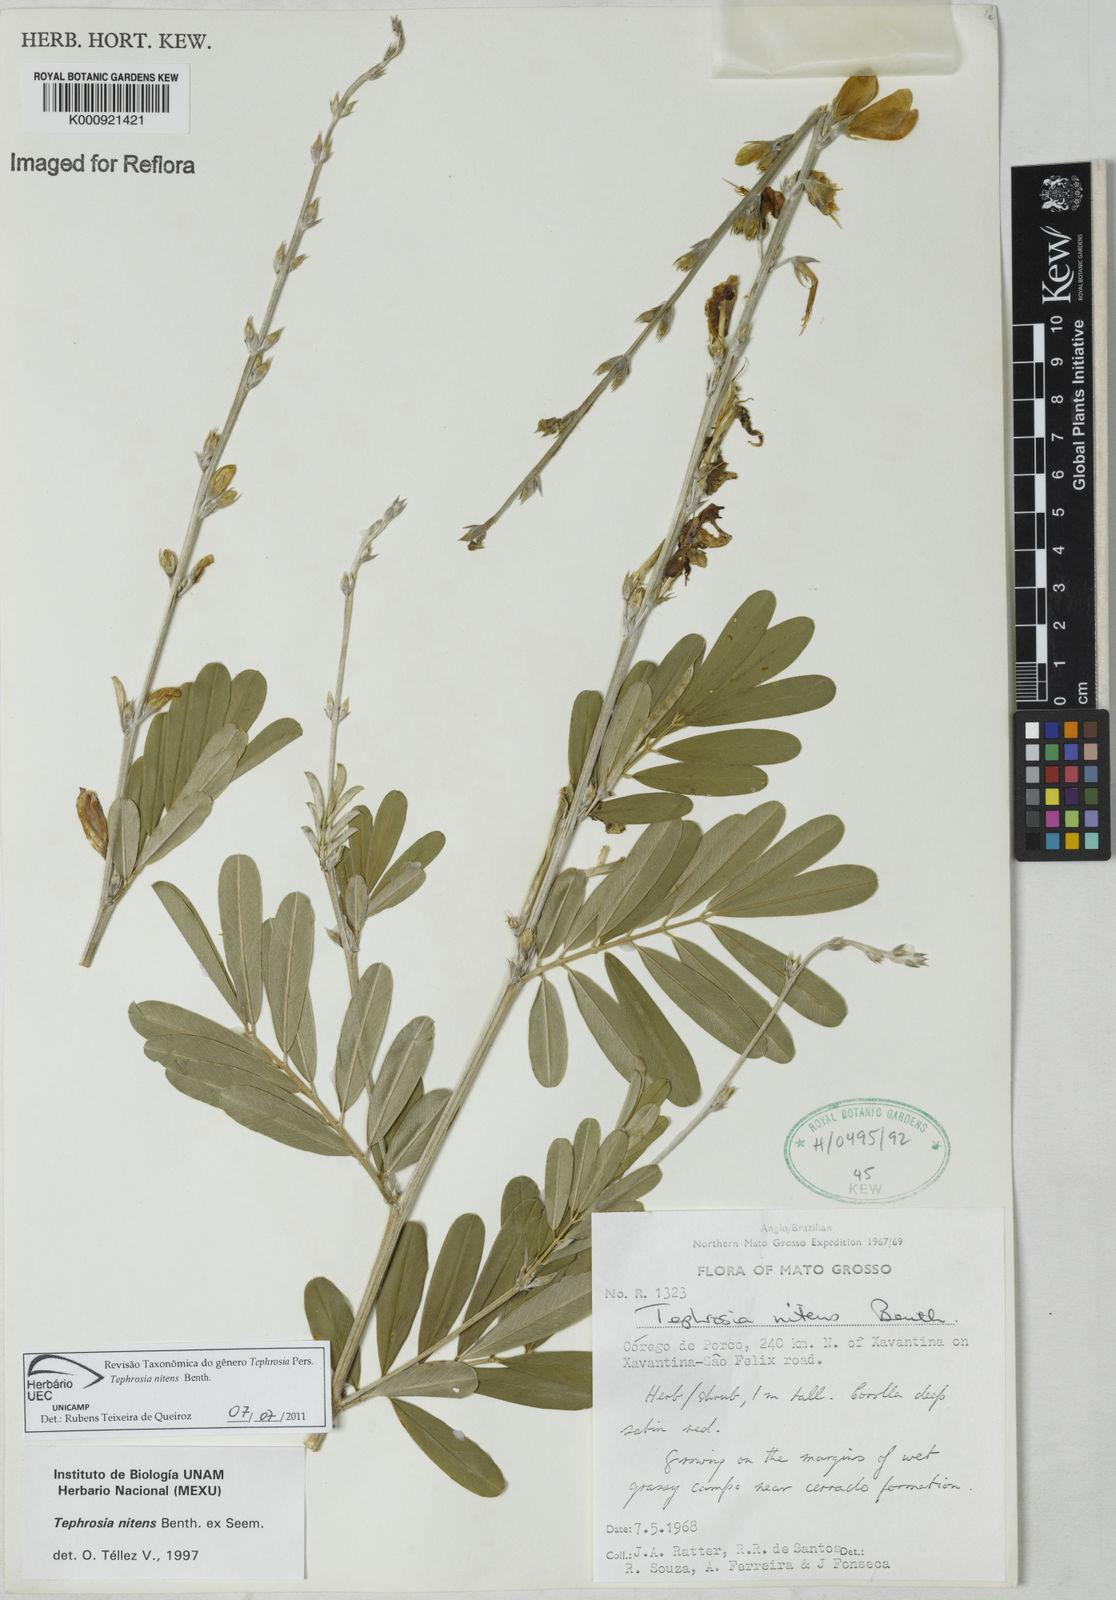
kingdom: Plantae
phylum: Tracheophyta
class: Magnoliopsida
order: Fabales
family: Fabaceae
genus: Tephrosia
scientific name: Tephrosia nitens
